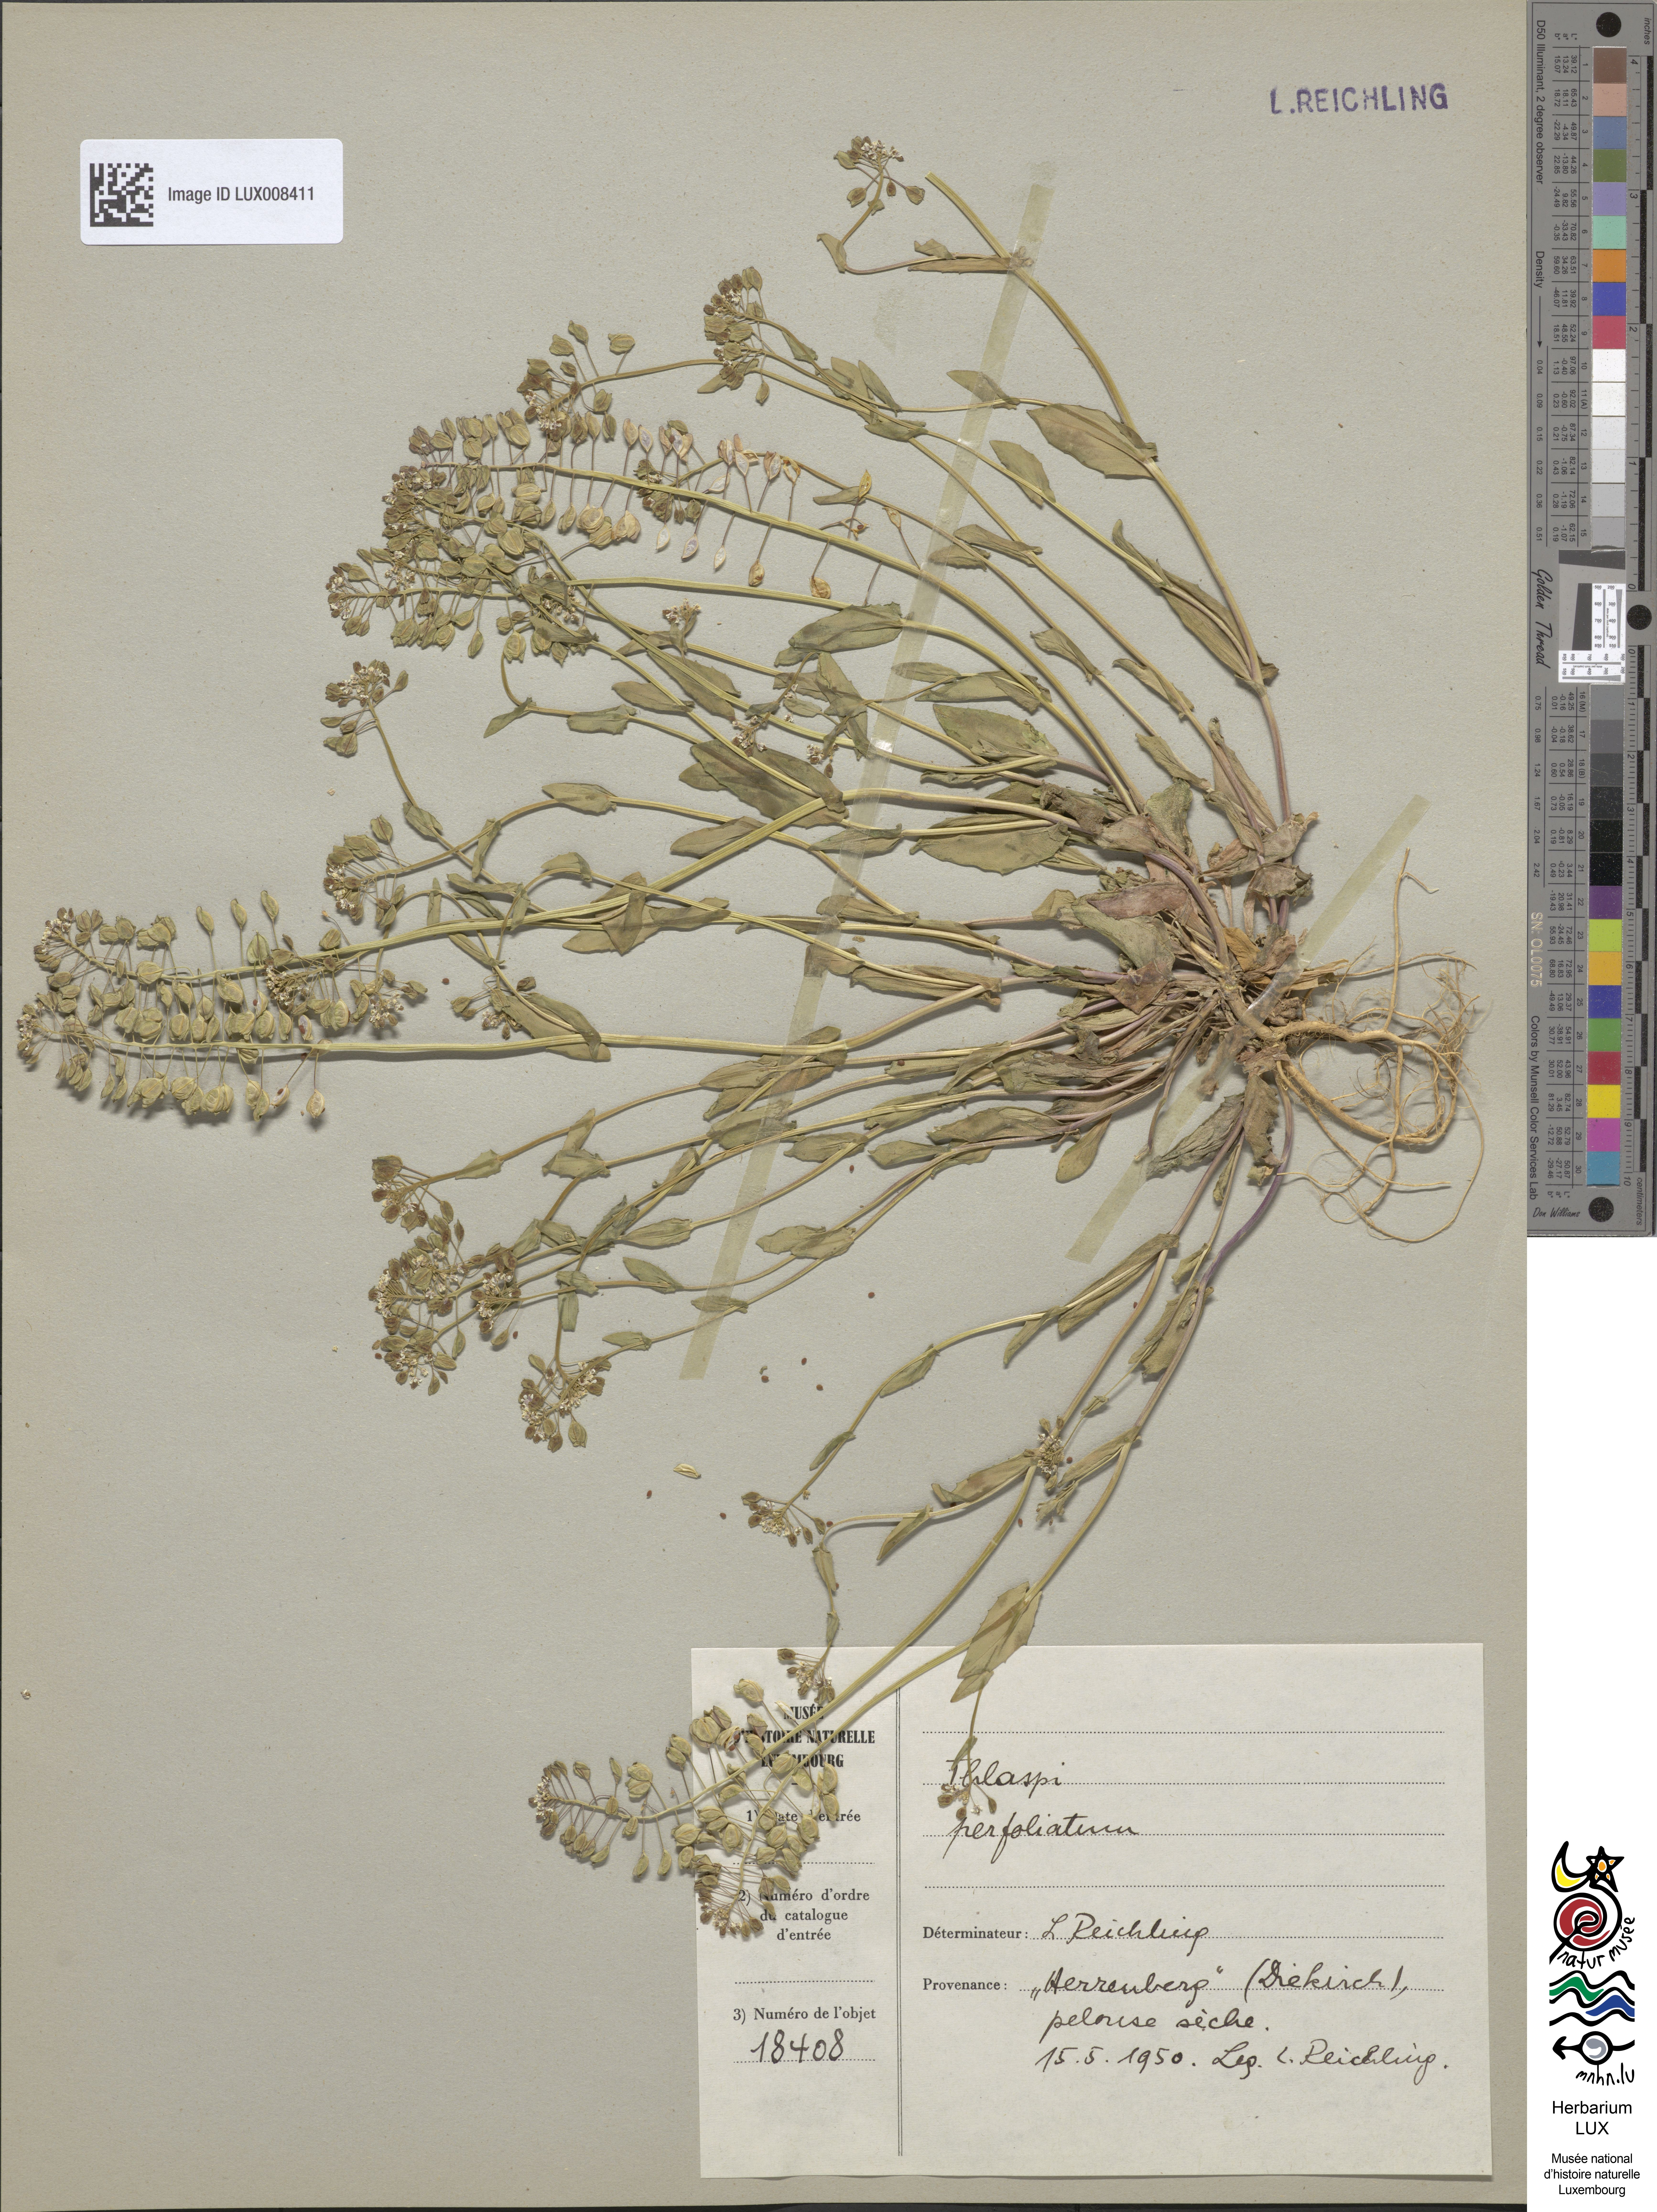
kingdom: Plantae
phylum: Tracheophyta
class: Magnoliopsida
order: Brassicales
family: Brassicaceae
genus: Noccaea
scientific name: Noccaea perfoliata
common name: Perfoliate pennycress
